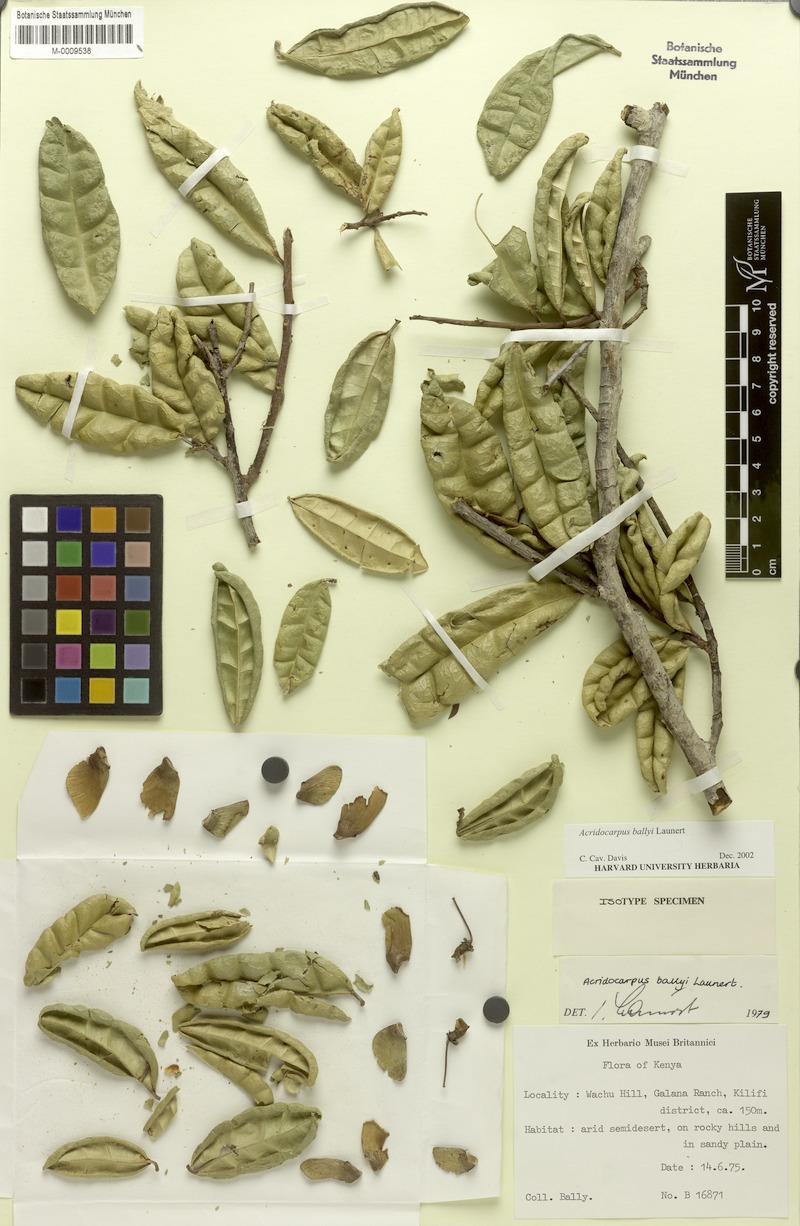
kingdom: Plantae
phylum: Tracheophyta
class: Magnoliopsida
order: Malpighiales
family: Malpighiaceae
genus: Acridocarpus
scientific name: Acridocarpus ballyi
